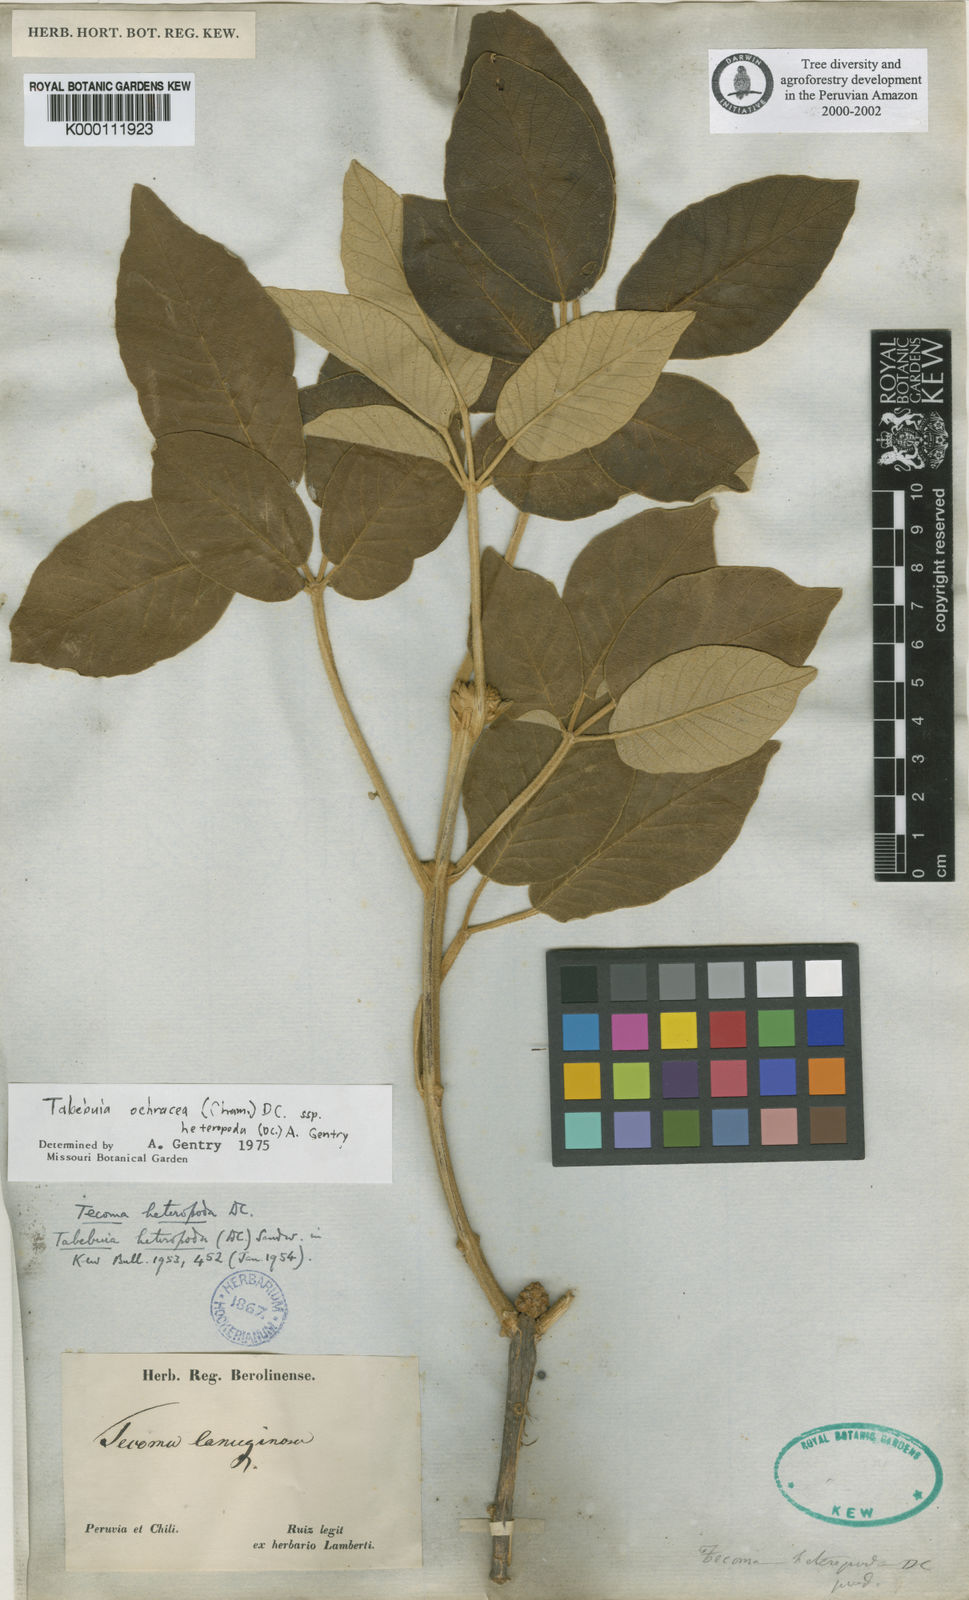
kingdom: Plantae
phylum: Tracheophyta
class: Magnoliopsida
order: Lamiales
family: Bignoniaceae
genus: Tecoma
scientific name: Tecoma
